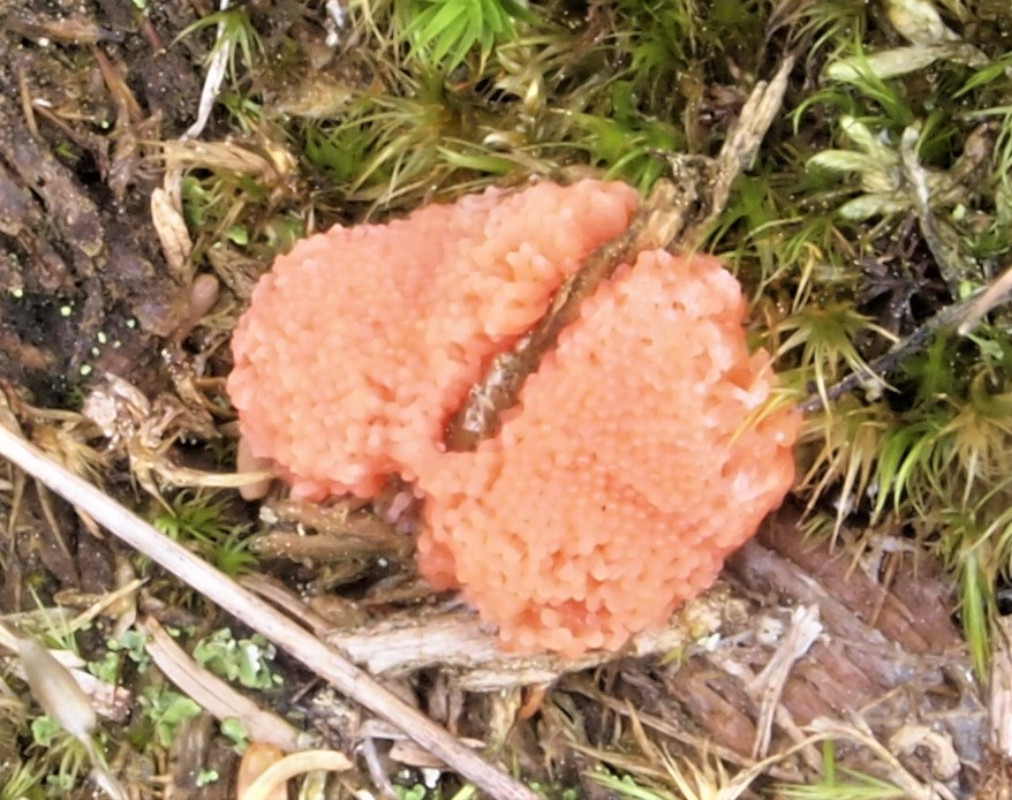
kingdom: Protozoa
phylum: Mycetozoa
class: Myxomycetes
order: Cribrariales
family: Tubiferaceae
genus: Tubifera
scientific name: Tubifera ferruginosa
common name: kanel-støvrør
